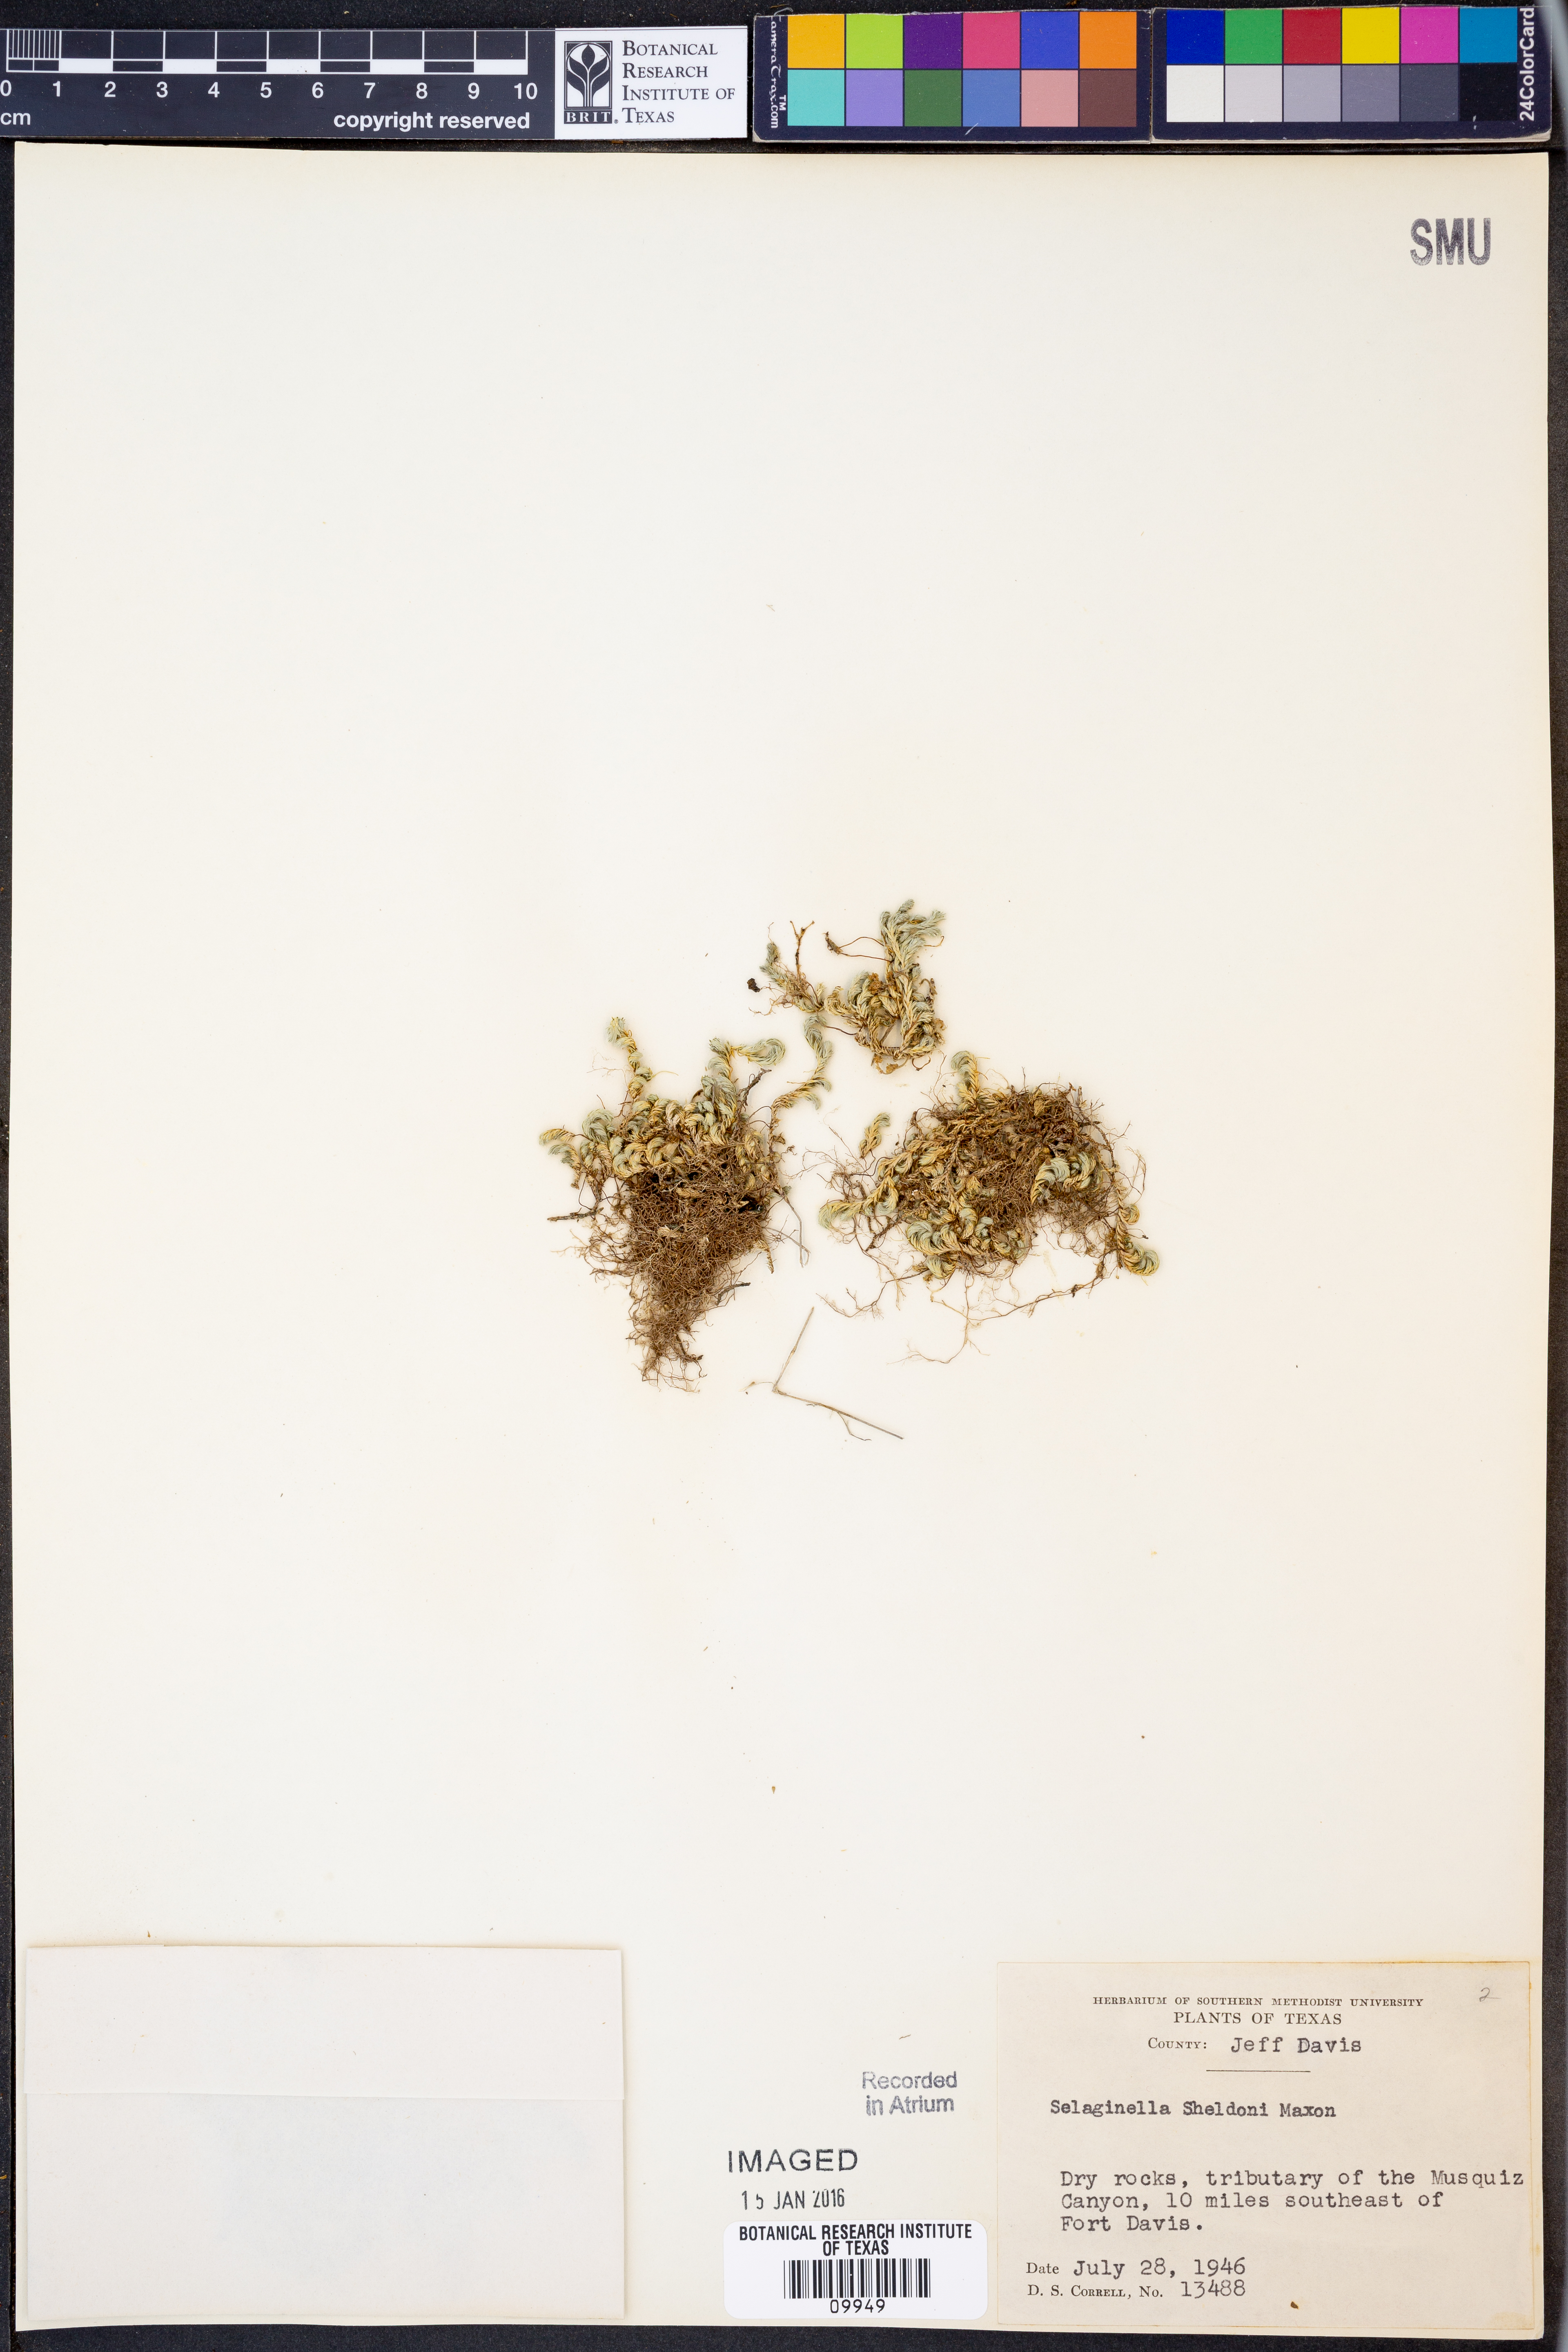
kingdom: Plantae
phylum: Tracheophyta
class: Lycopodiopsida
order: Selaginellales
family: Selaginellaceae
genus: Selaginella
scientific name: Selaginella peruviana
